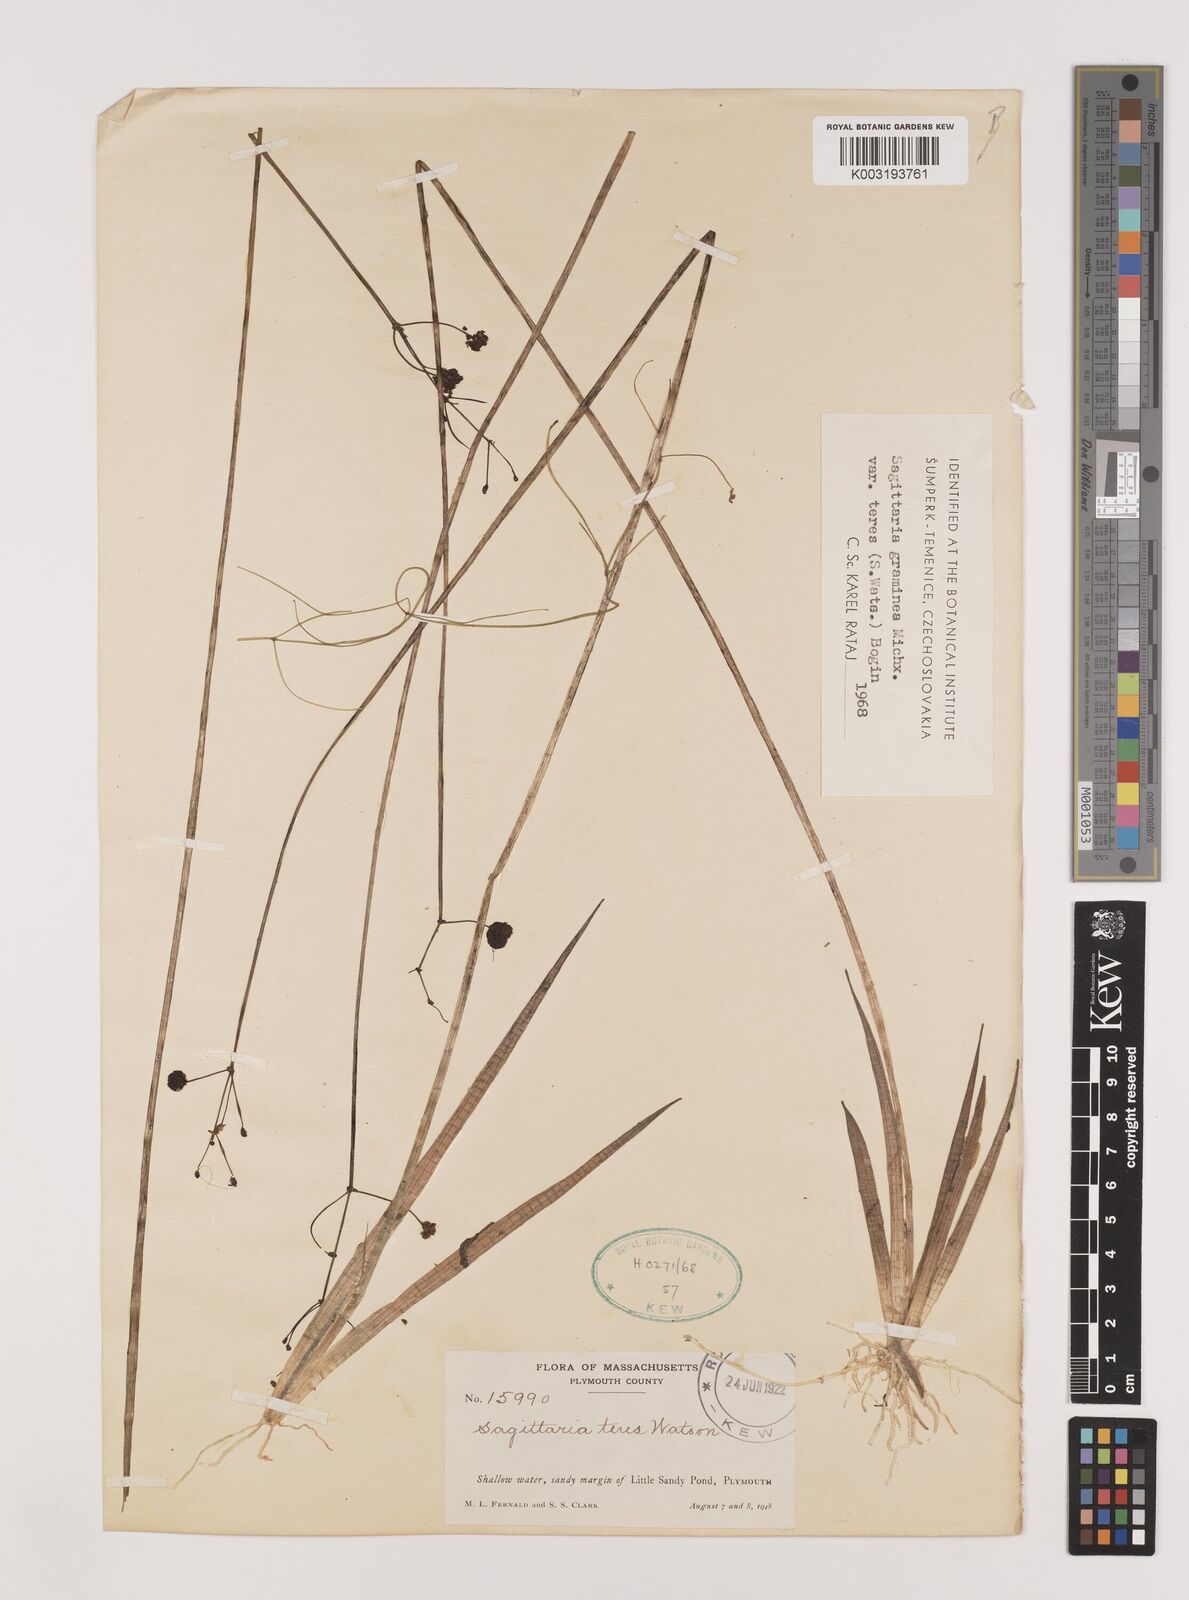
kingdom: Plantae
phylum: Tracheophyta
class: Liliopsida
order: Alismatales
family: Alismataceae
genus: Sagittaria
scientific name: Sagittaria teres
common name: Quill-leaf sagittaria
